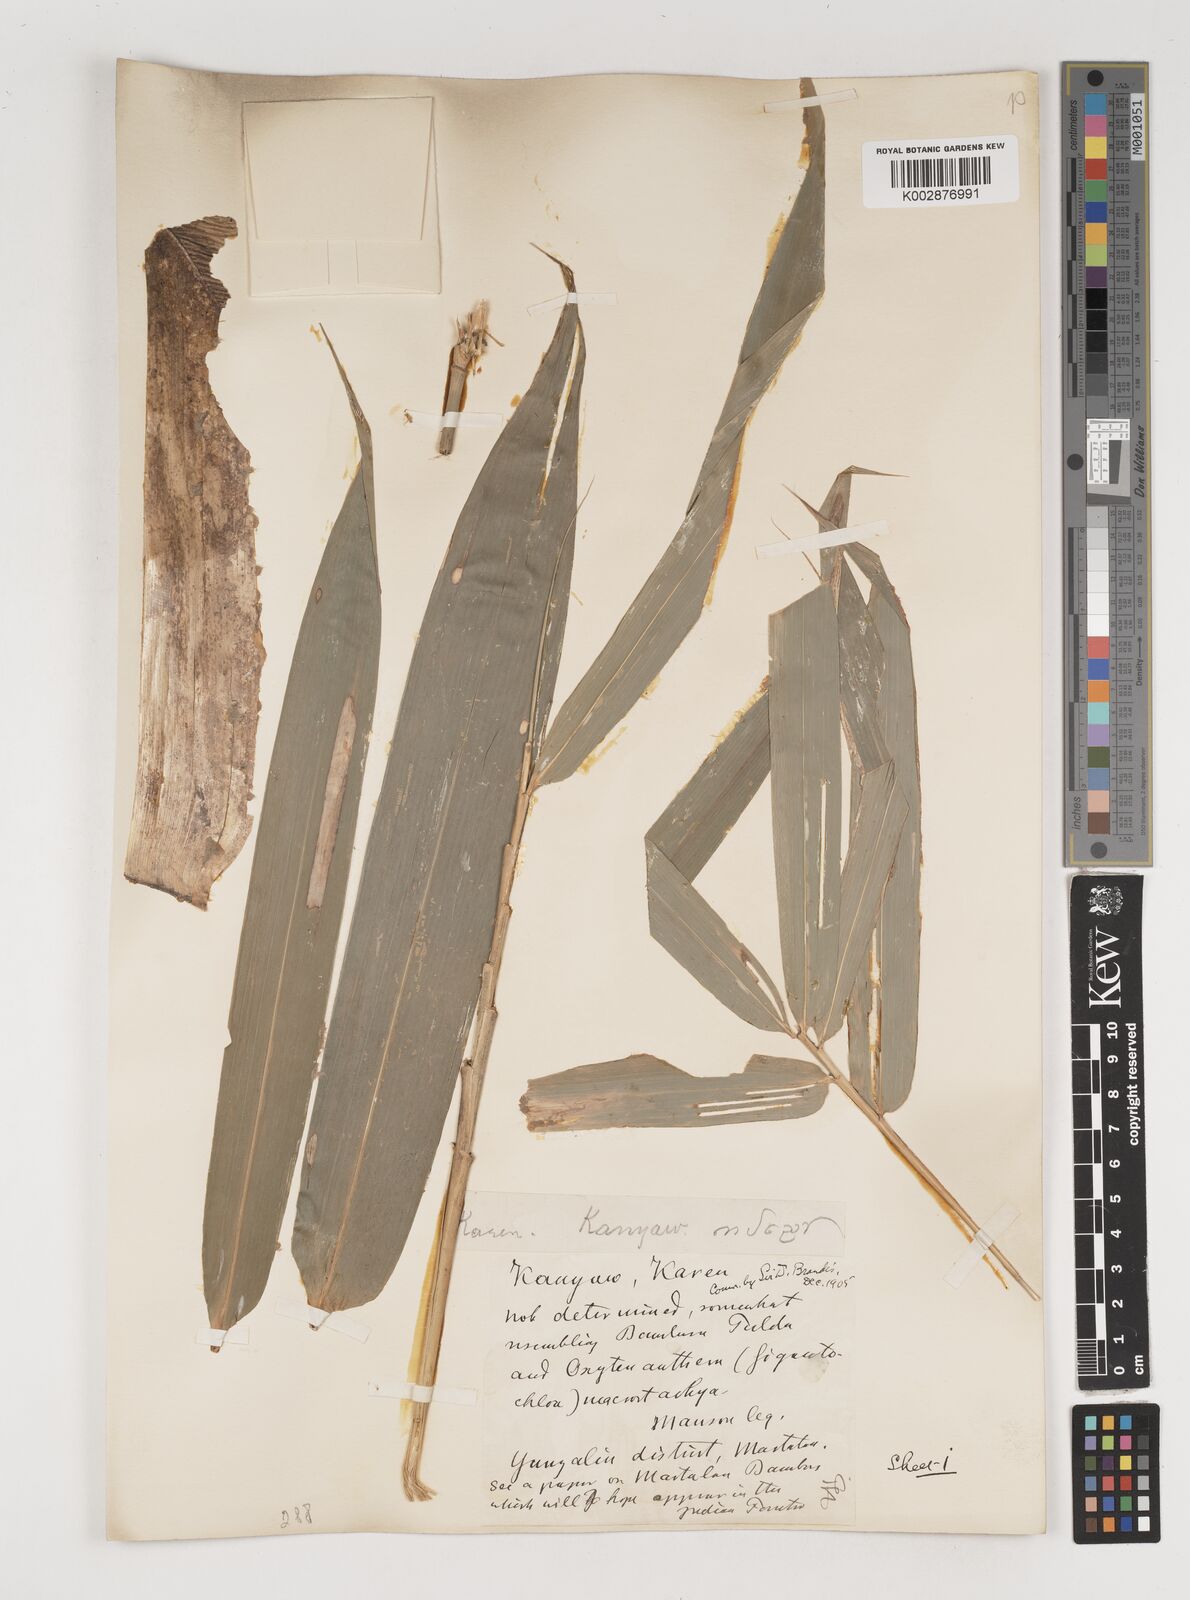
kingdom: Plantae
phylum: Tracheophyta
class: Liliopsida
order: Poales
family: Poaceae
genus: Bambusa
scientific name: Bambusa tulda
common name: Bengal bamboo
